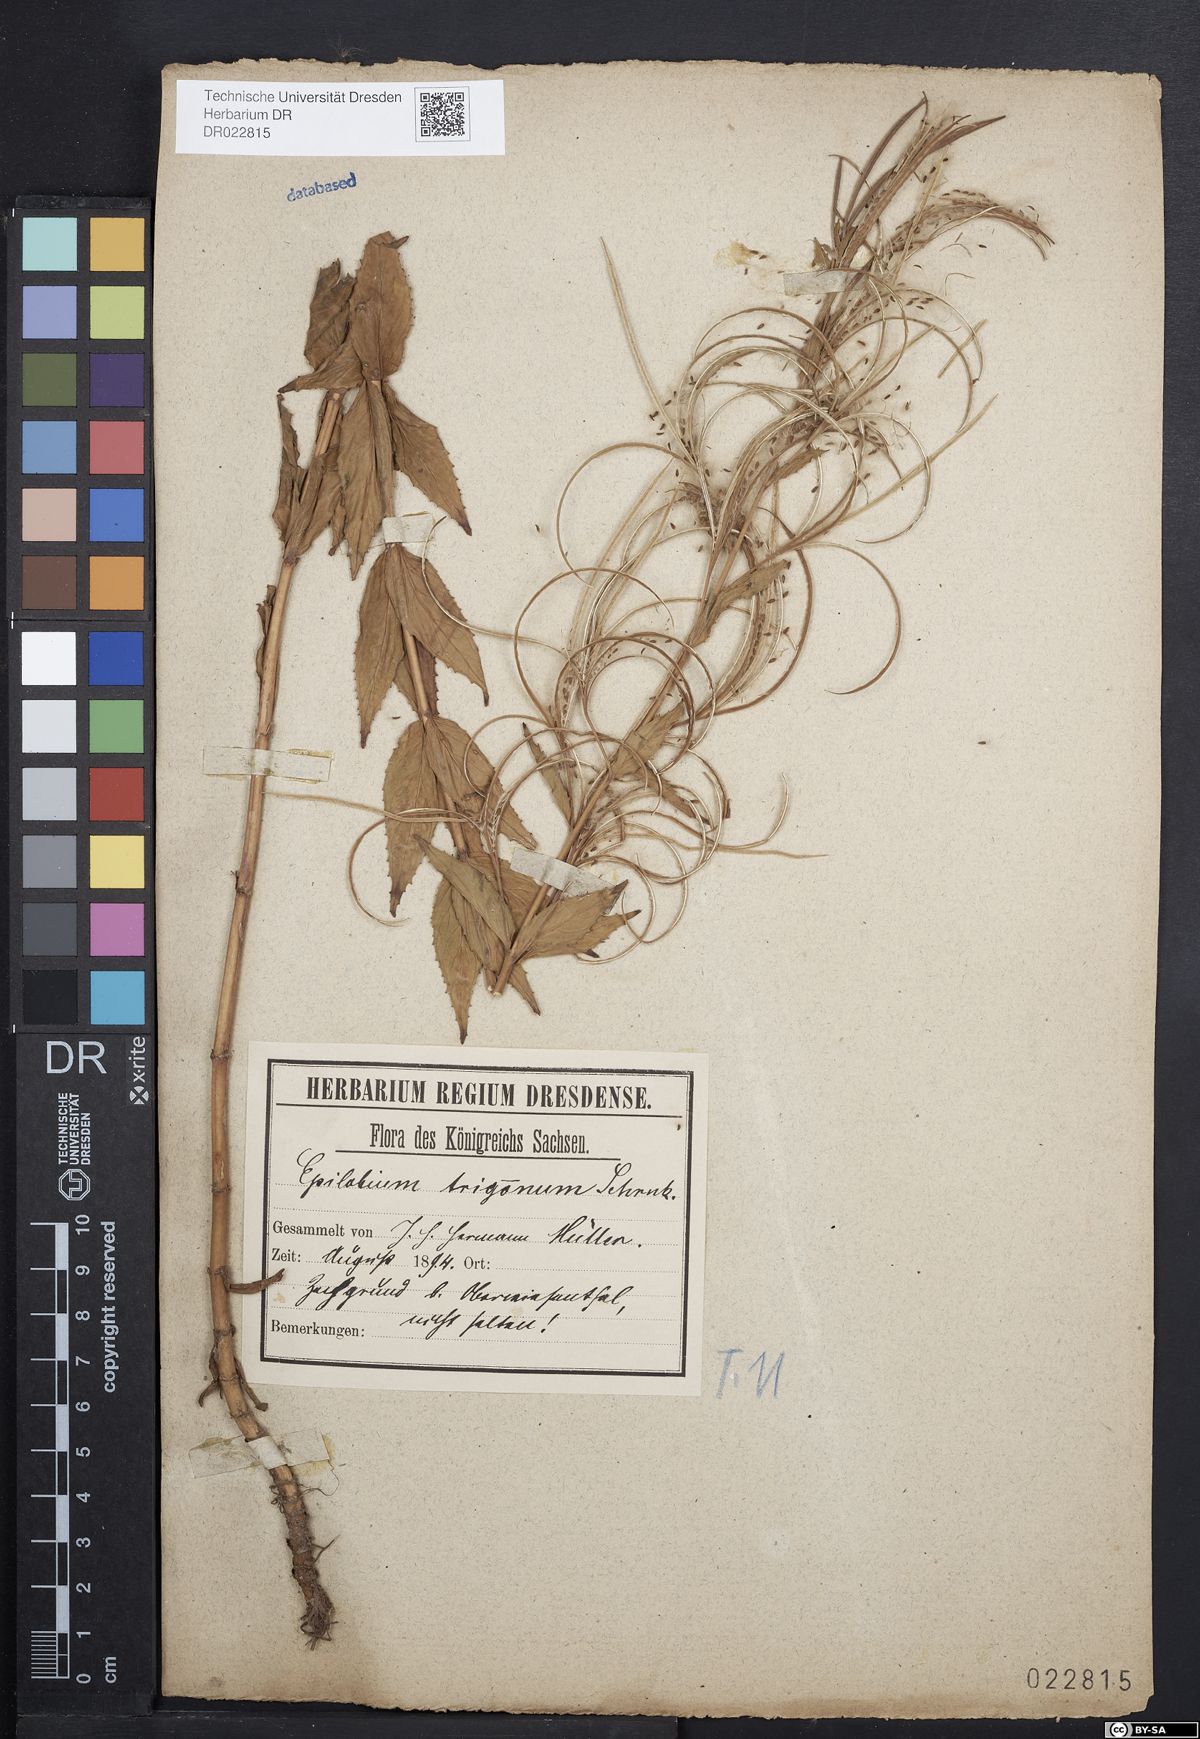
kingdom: Plantae
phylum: Tracheophyta
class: Magnoliopsida
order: Myrtales
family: Onagraceae
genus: Epilobium
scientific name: Epilobium alpestre
